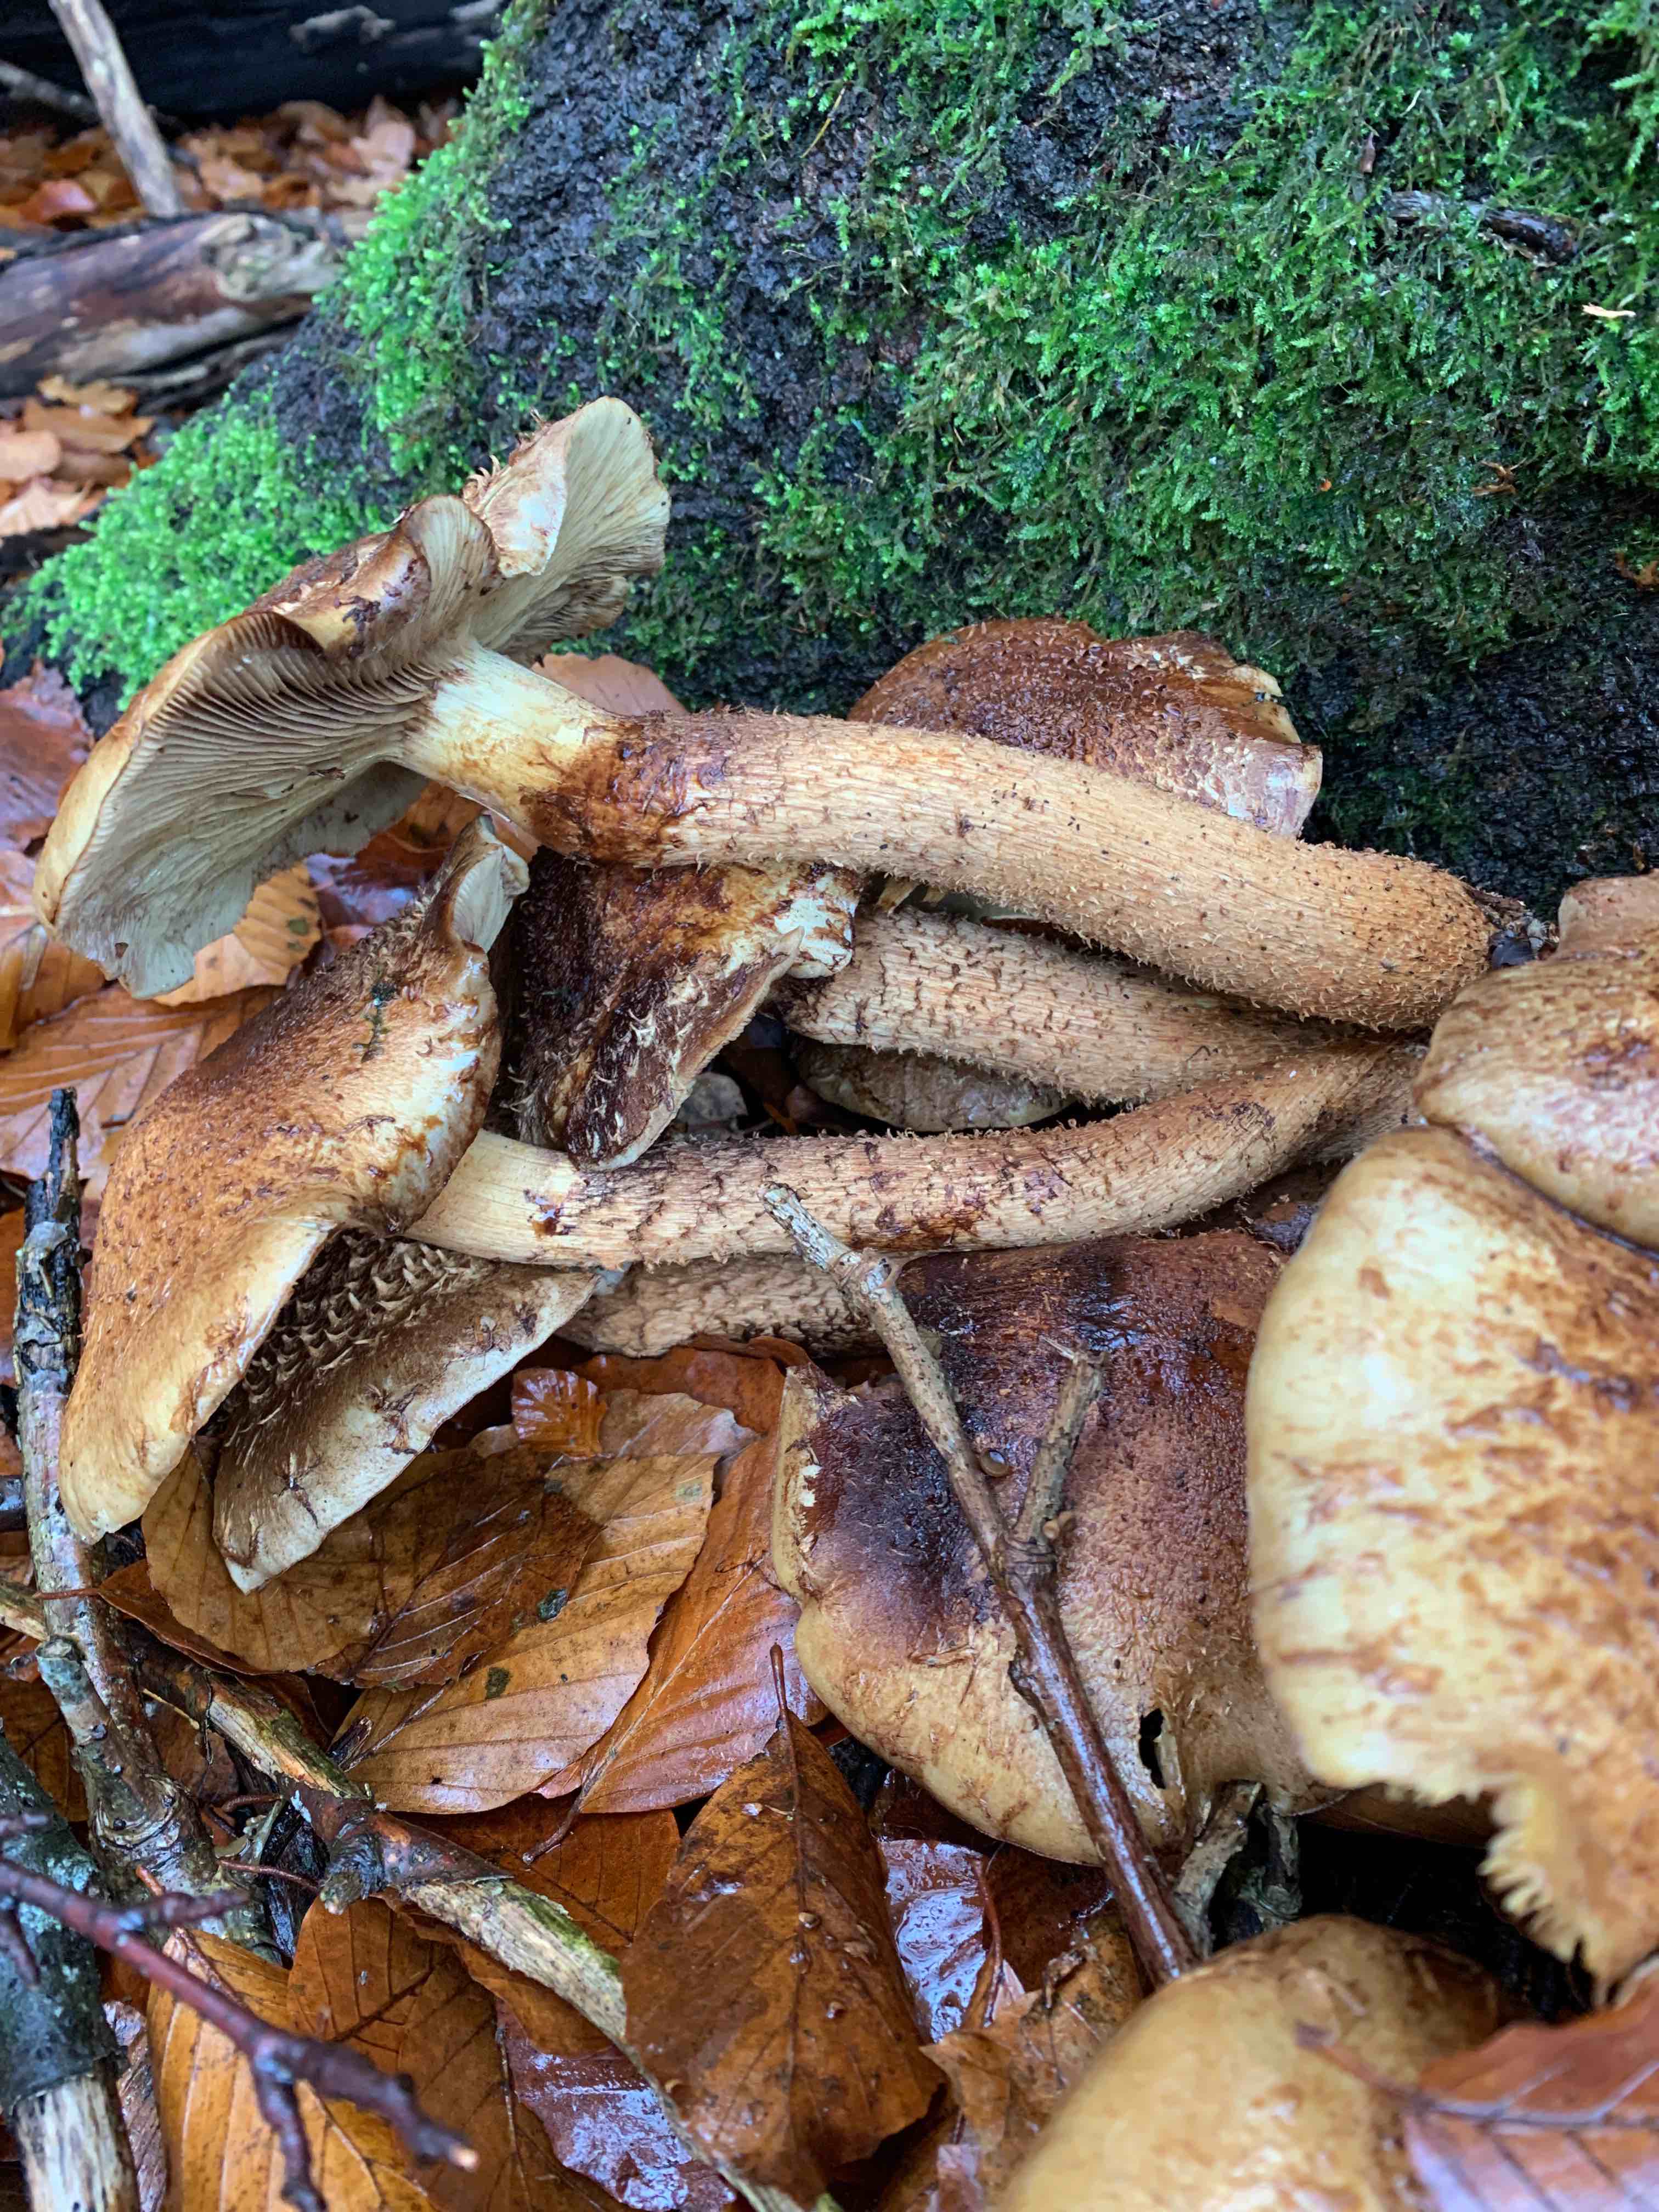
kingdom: Fungi
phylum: Basidiomycota
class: Agaricomycetes
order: Agaricales
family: Strophariaceae
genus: Pholiota
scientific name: Pholiota squarrosa
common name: krumskællet skælhat
